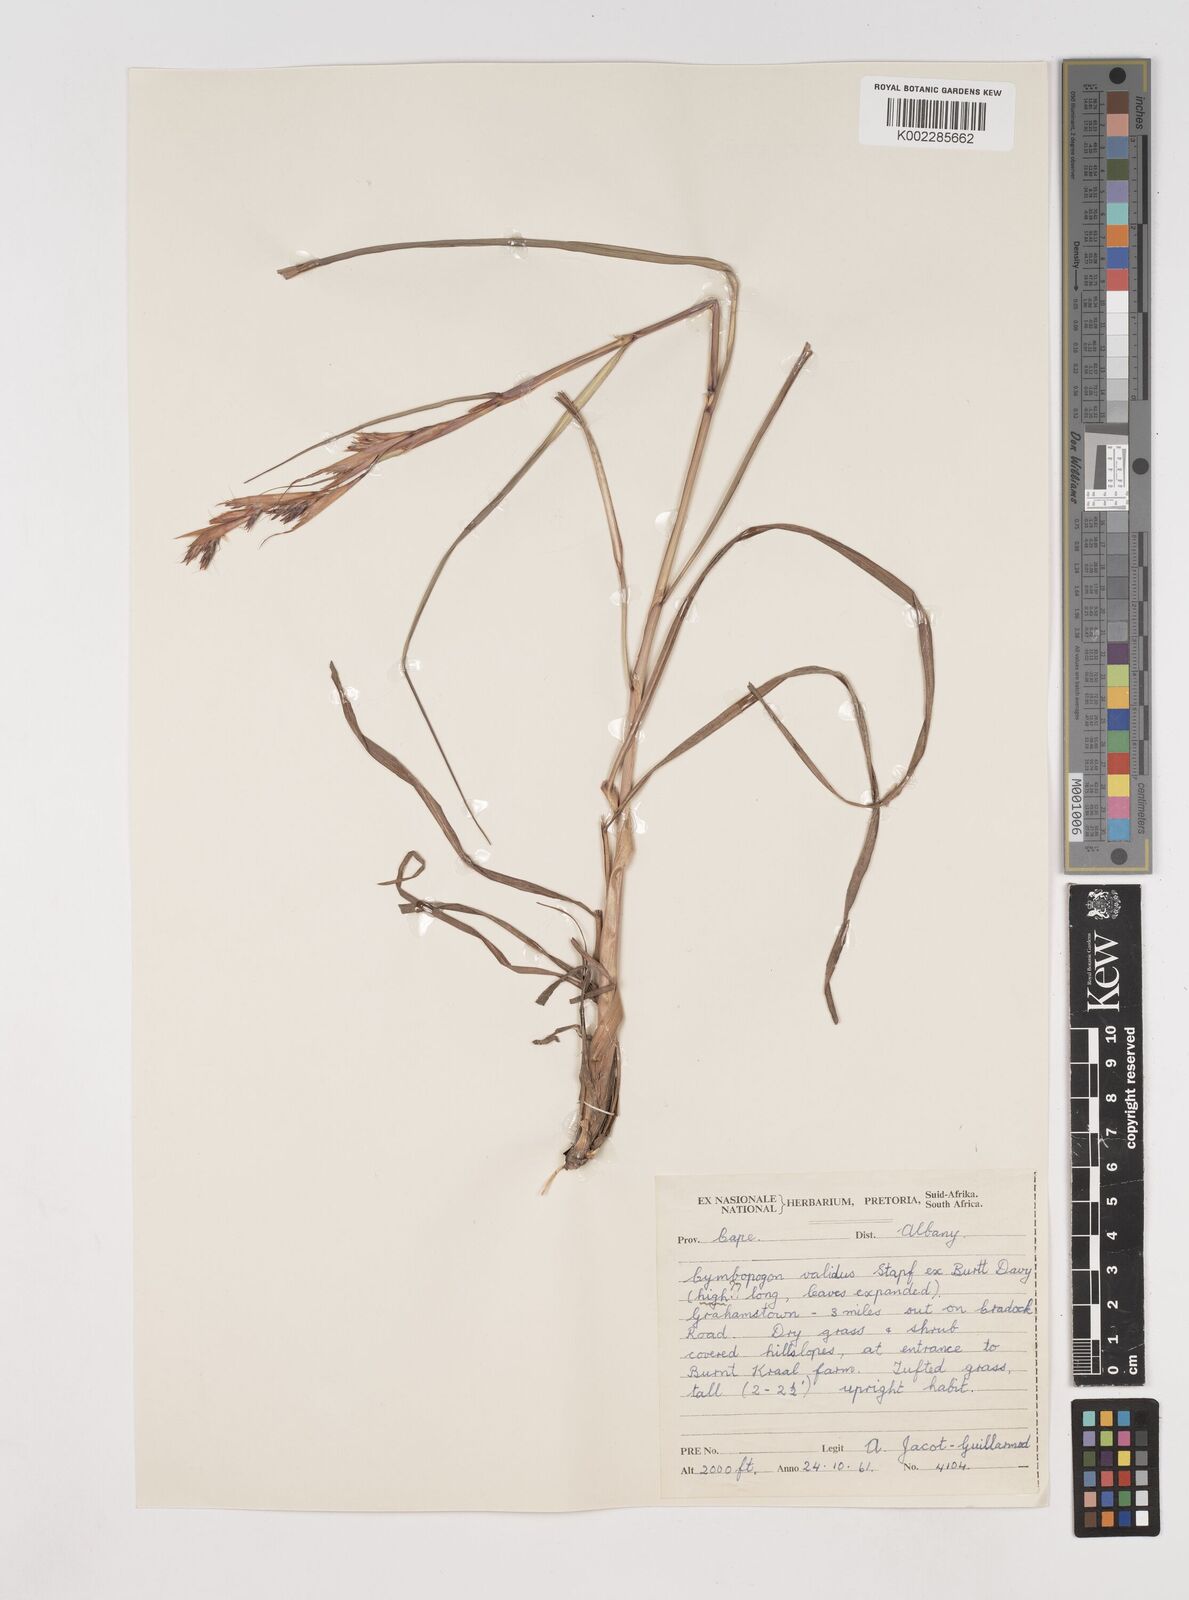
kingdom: Plantae
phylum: Tracheophyta
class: Liliopsida
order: Poales
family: Poaceae
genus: Cymbopogon
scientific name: Cymbopogon marginatus
